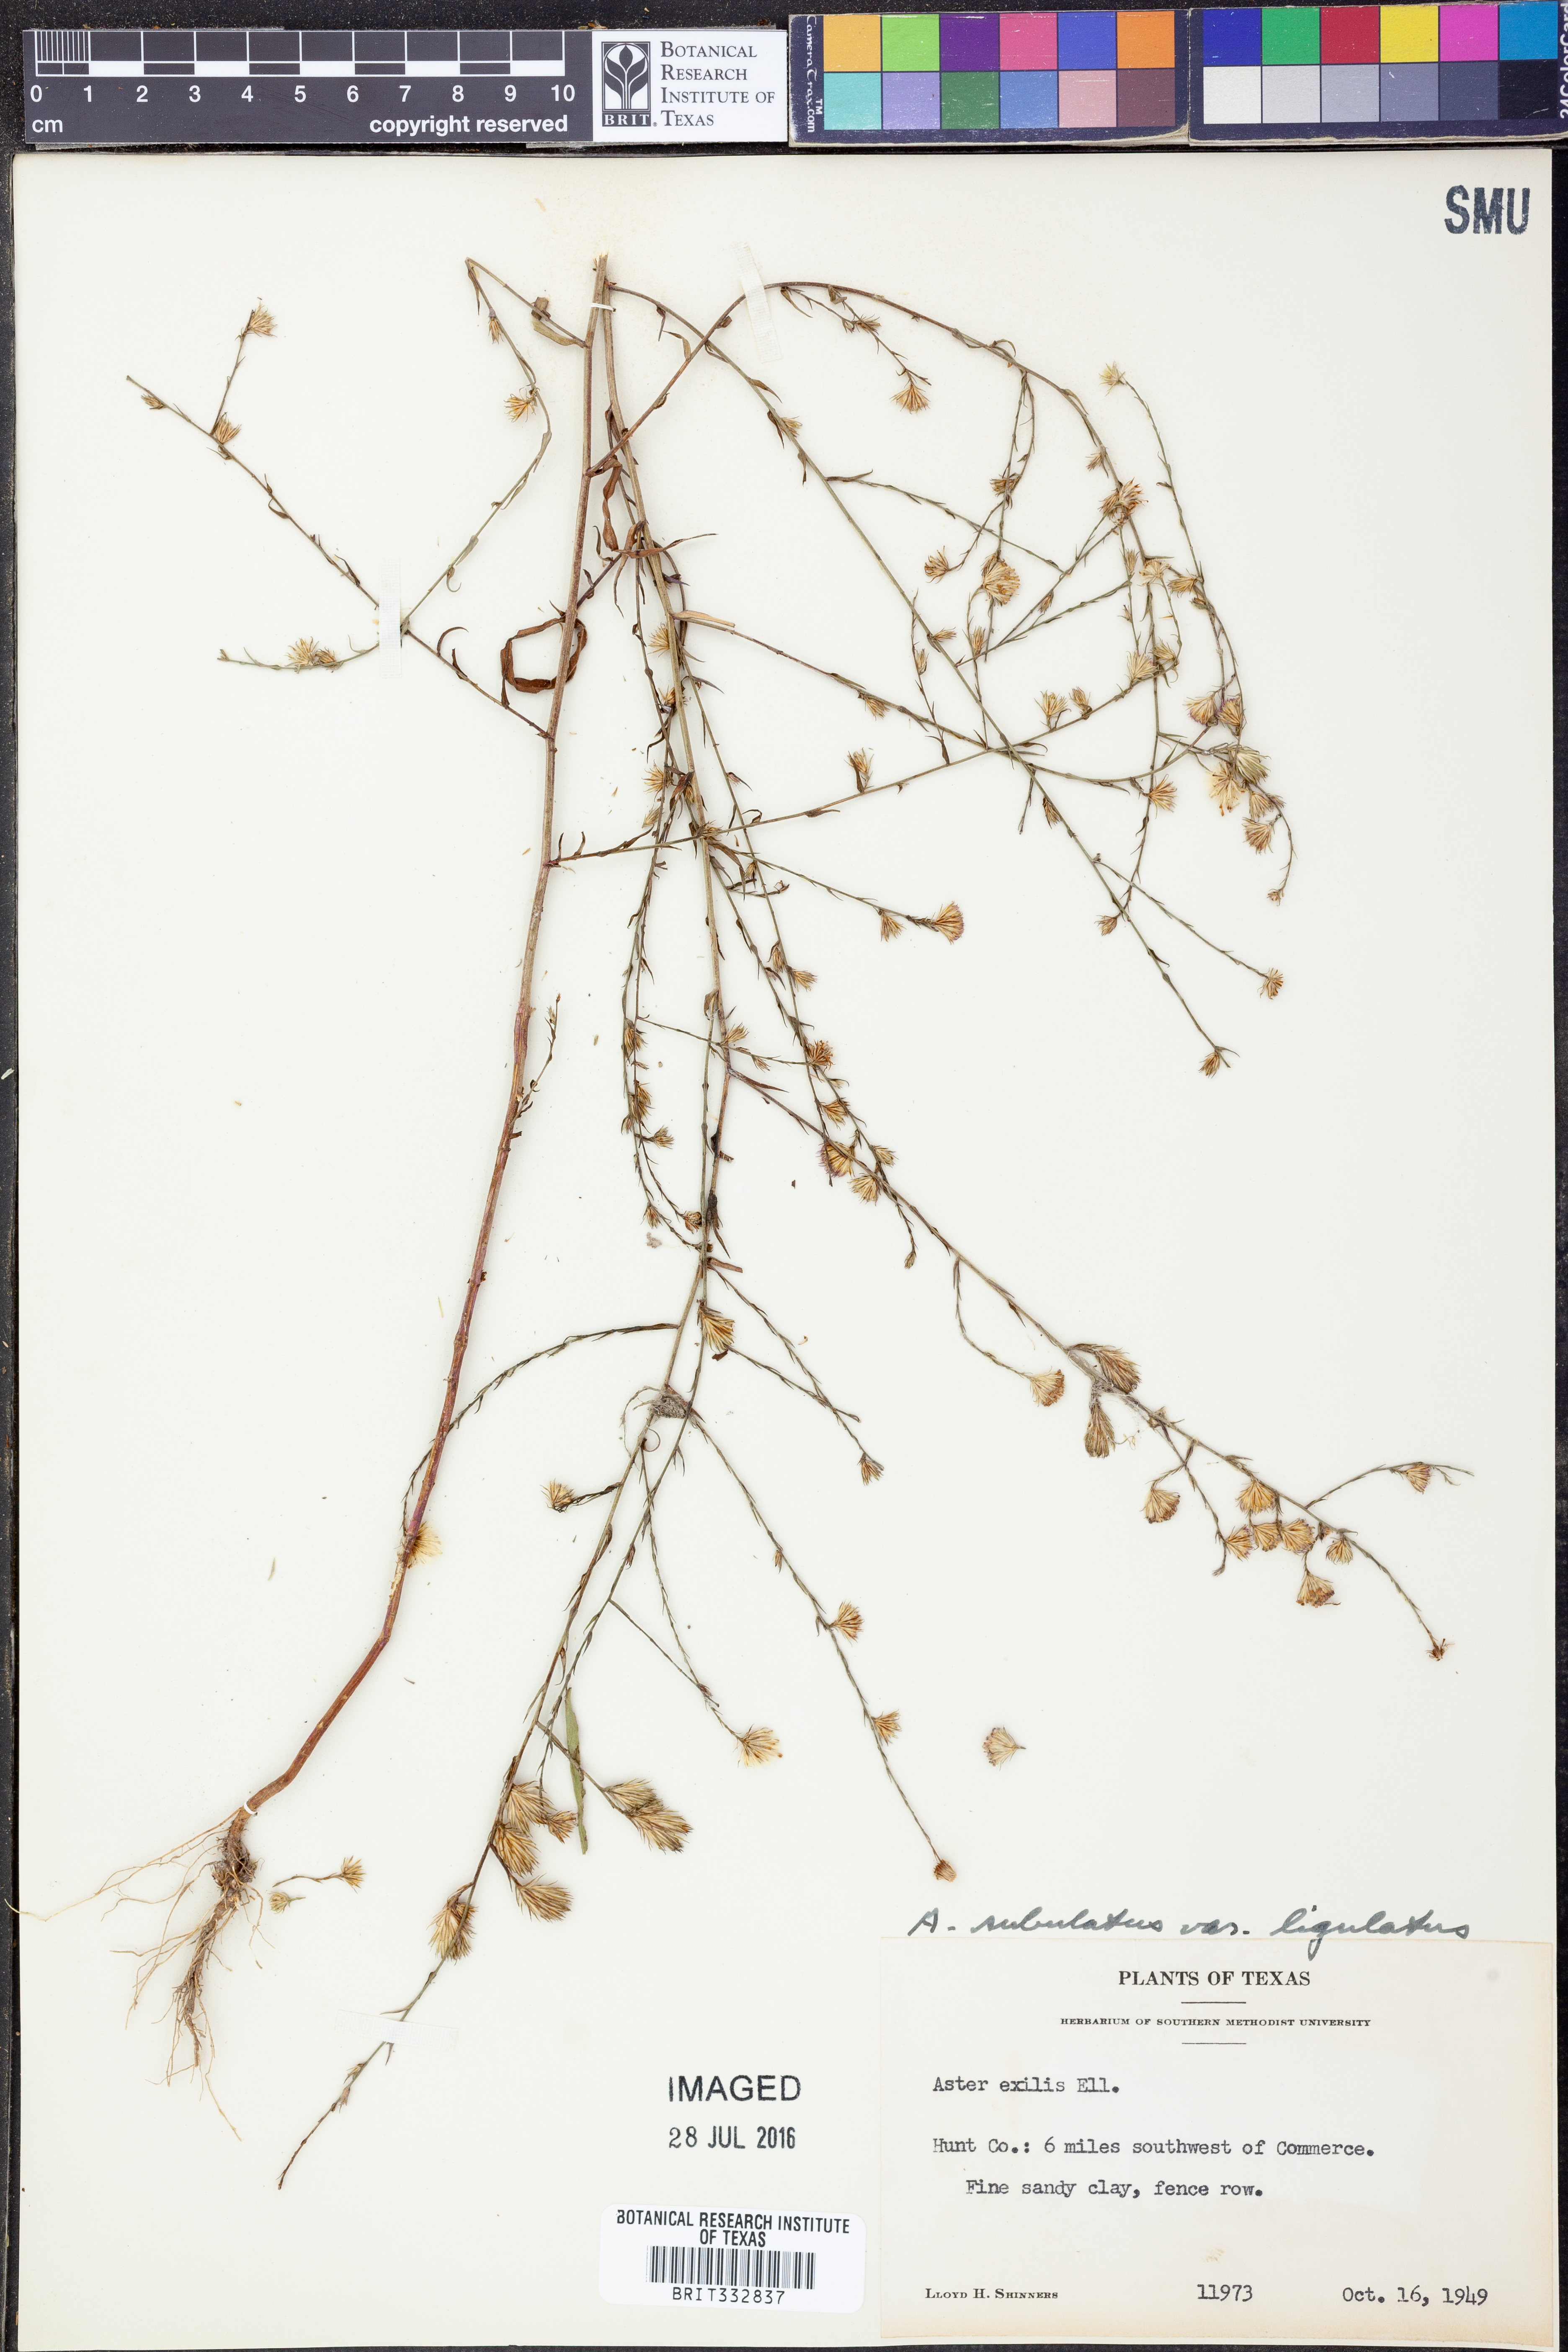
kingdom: Plantae
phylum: Tracheophyta
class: Magnoliopsida
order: Asterales
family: Asteraceae
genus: Symphyotrichum
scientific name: Symphyotrichum divaricatum
